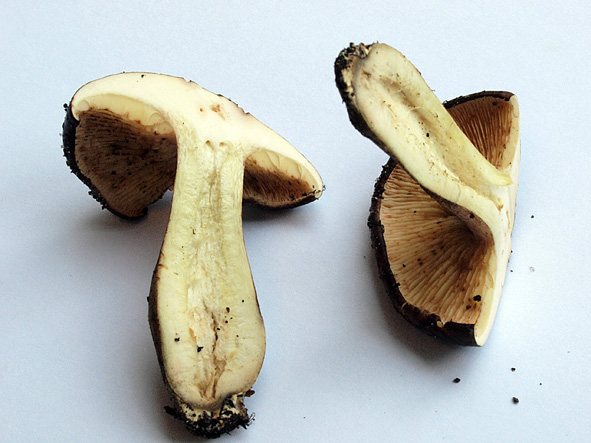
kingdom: Fungi
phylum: Basidiomycota
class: Agaricomycetes
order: Agaricales
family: Tricholomataceae
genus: Tricholoma
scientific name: Tricholoma fulvum
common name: birke-ridderhat
